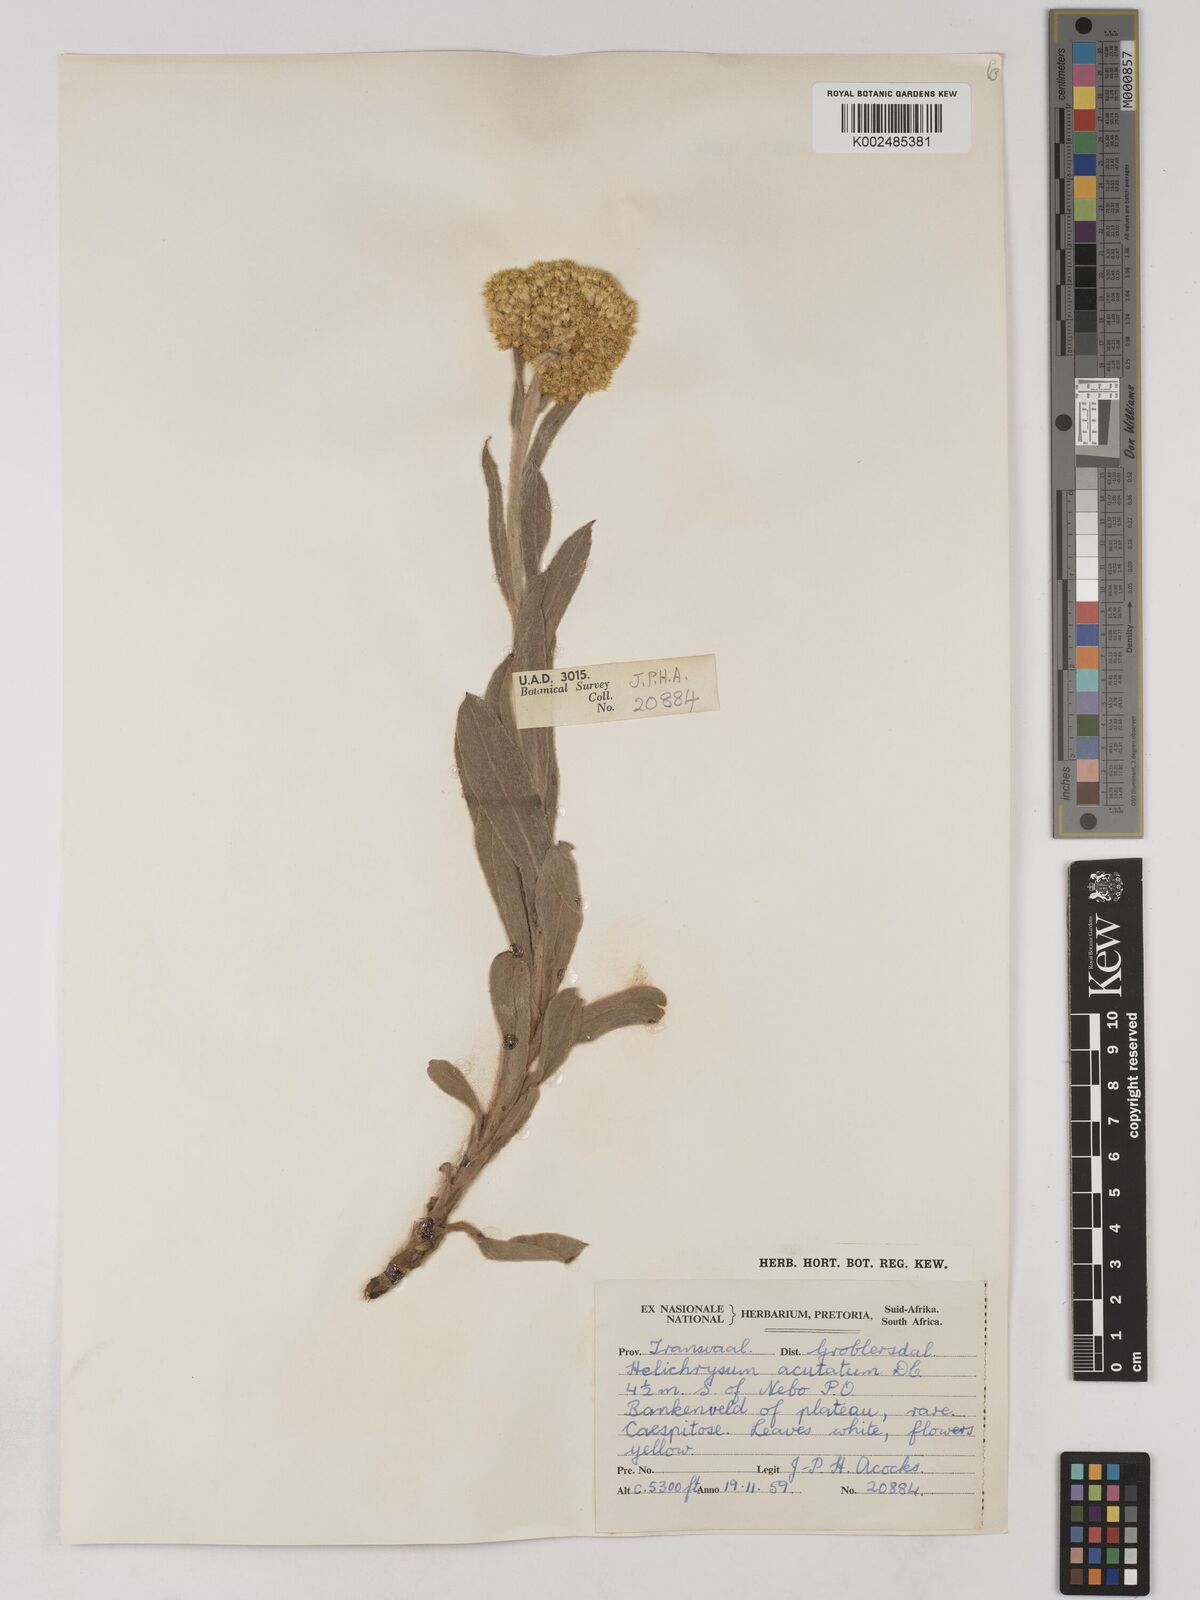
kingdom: Plantae
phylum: Tracheophyta
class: Magnoliopsida
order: Asterales
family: Asteraceae
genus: Helichrysum
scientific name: Helichrysum acutatum
